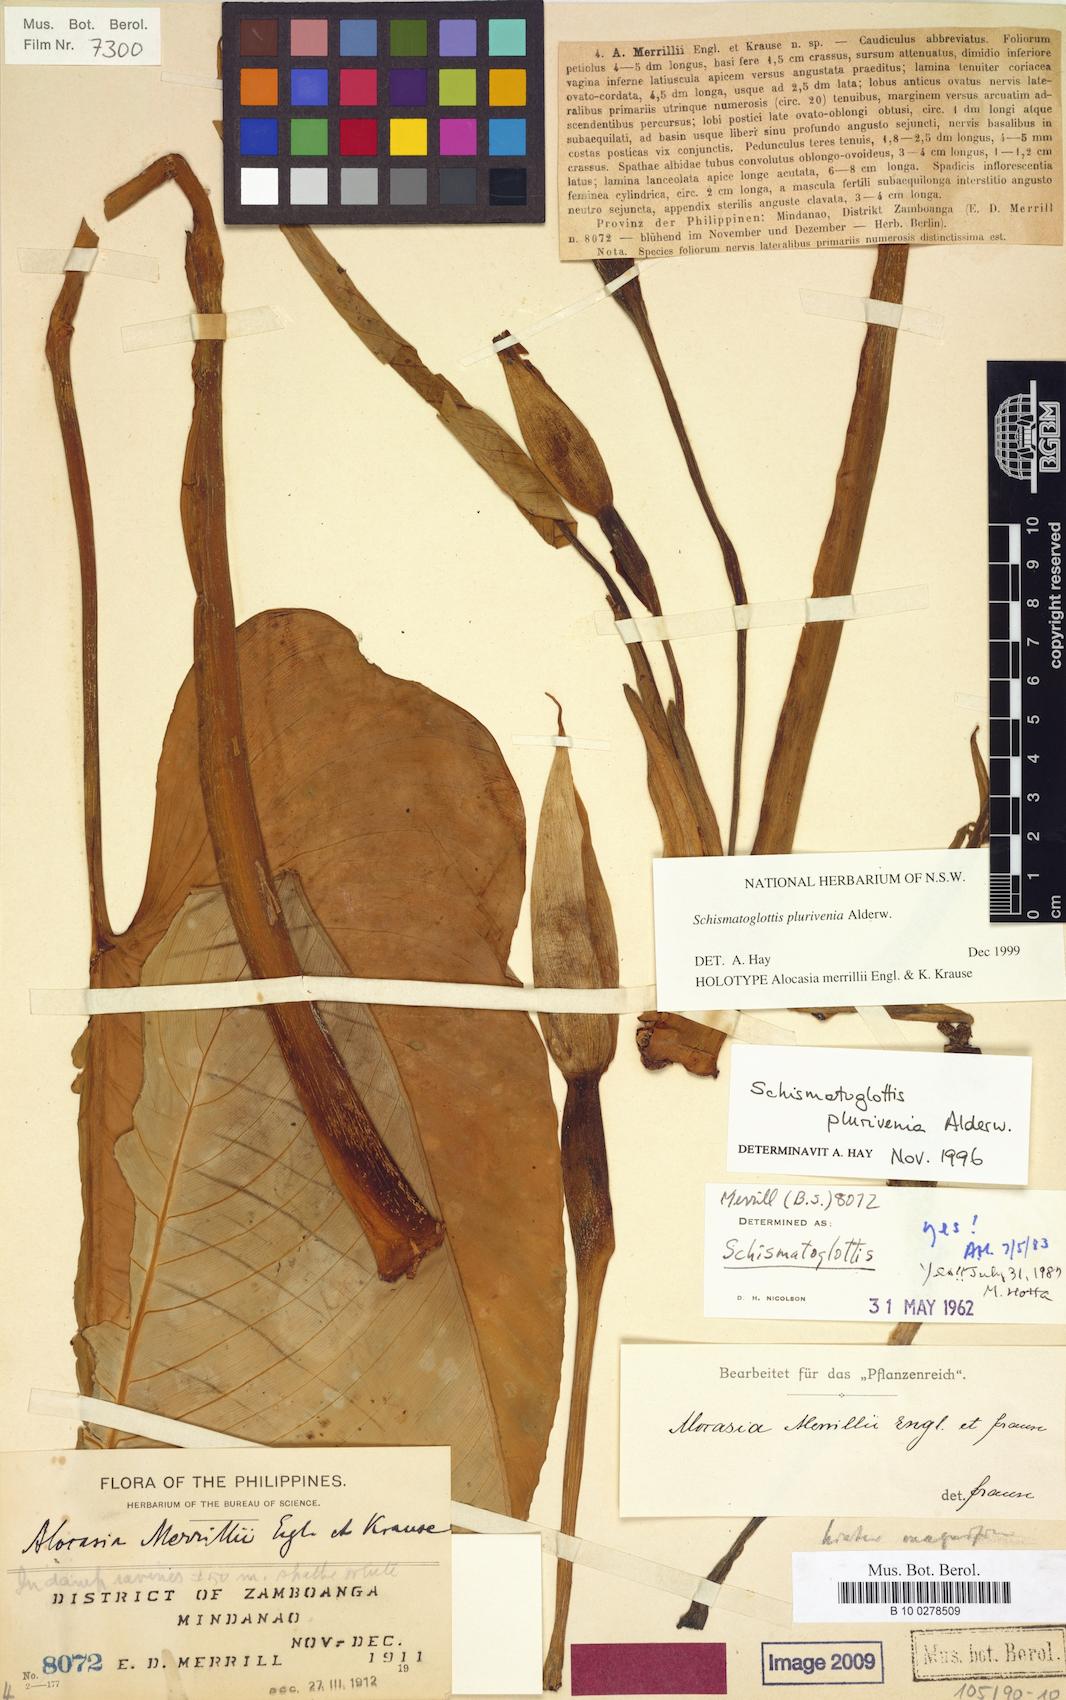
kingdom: Plantae
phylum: Tracheophyta
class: Liliopsida
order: Alismatales
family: Araceae
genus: Schismatoglottis
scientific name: Schismatoglottis plurivenia
